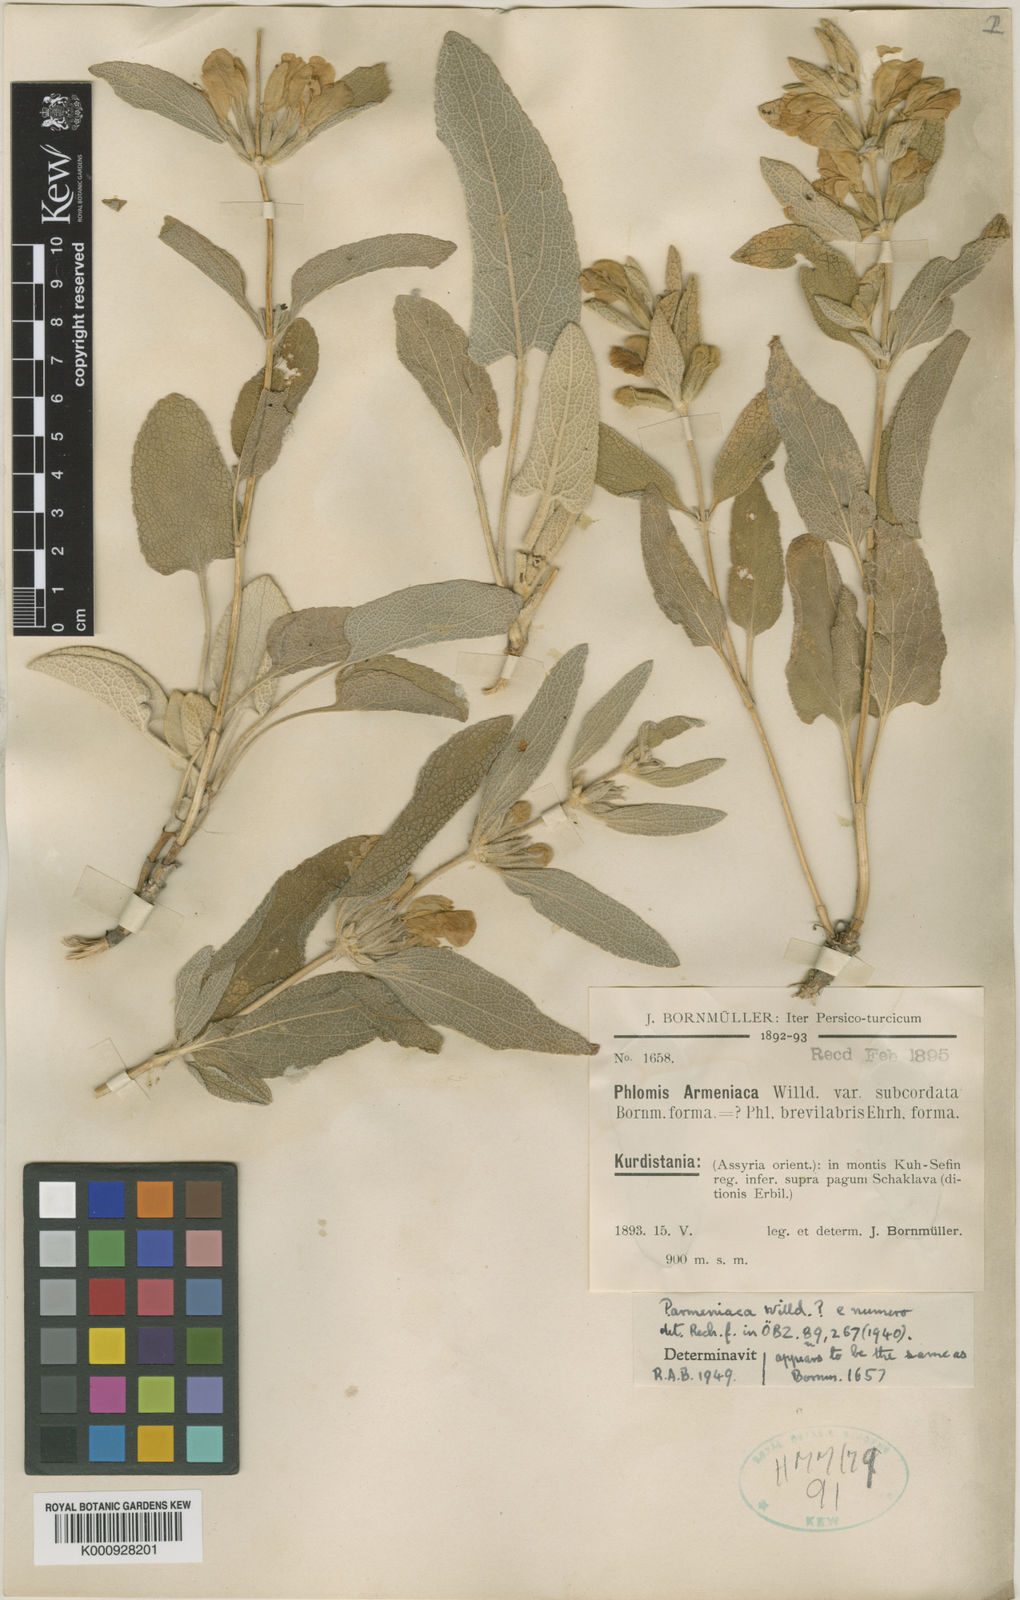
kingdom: Plantae
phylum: Tracheophyta
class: Magnoliopsida
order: Lamiales
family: Lamiaceae
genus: Phlomis
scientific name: Phlomis praetervisa
